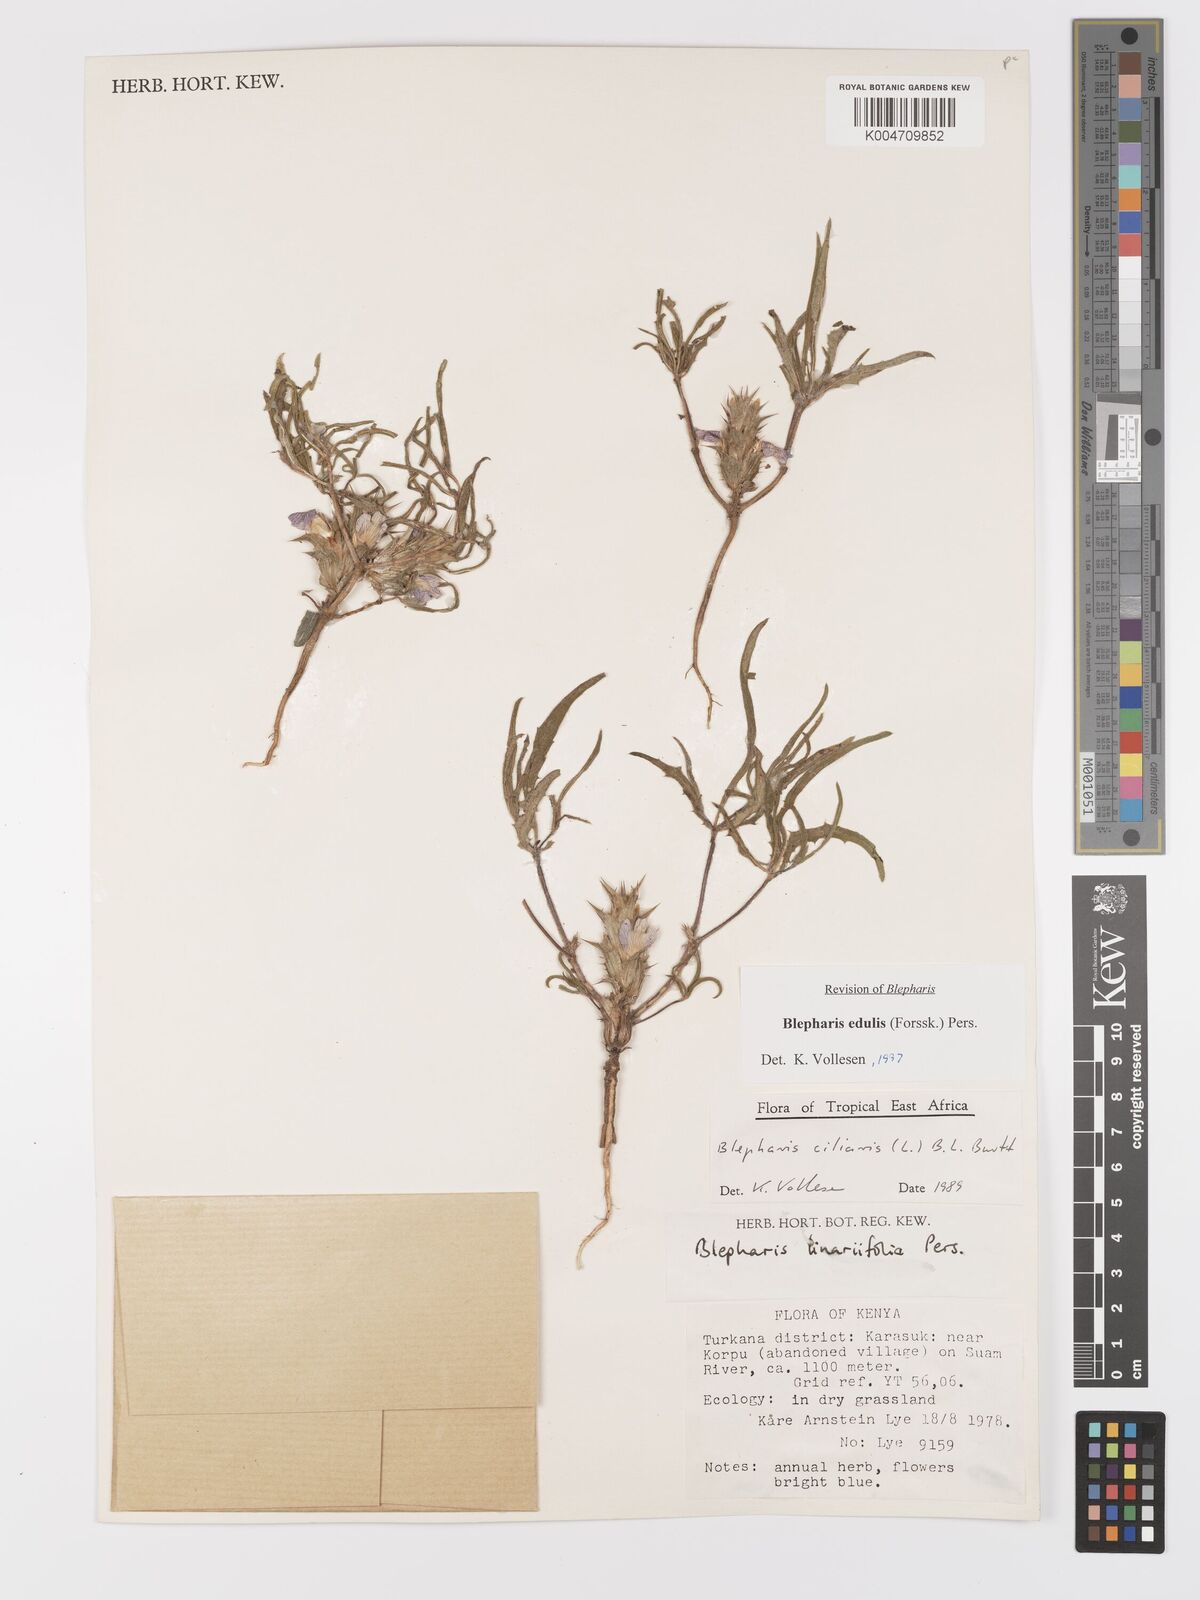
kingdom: Plantae
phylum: Tracheophyta
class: Magnoliopsida
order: Lamiales
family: Acanthaceae
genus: Blepharis
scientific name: Blepharis edulis
